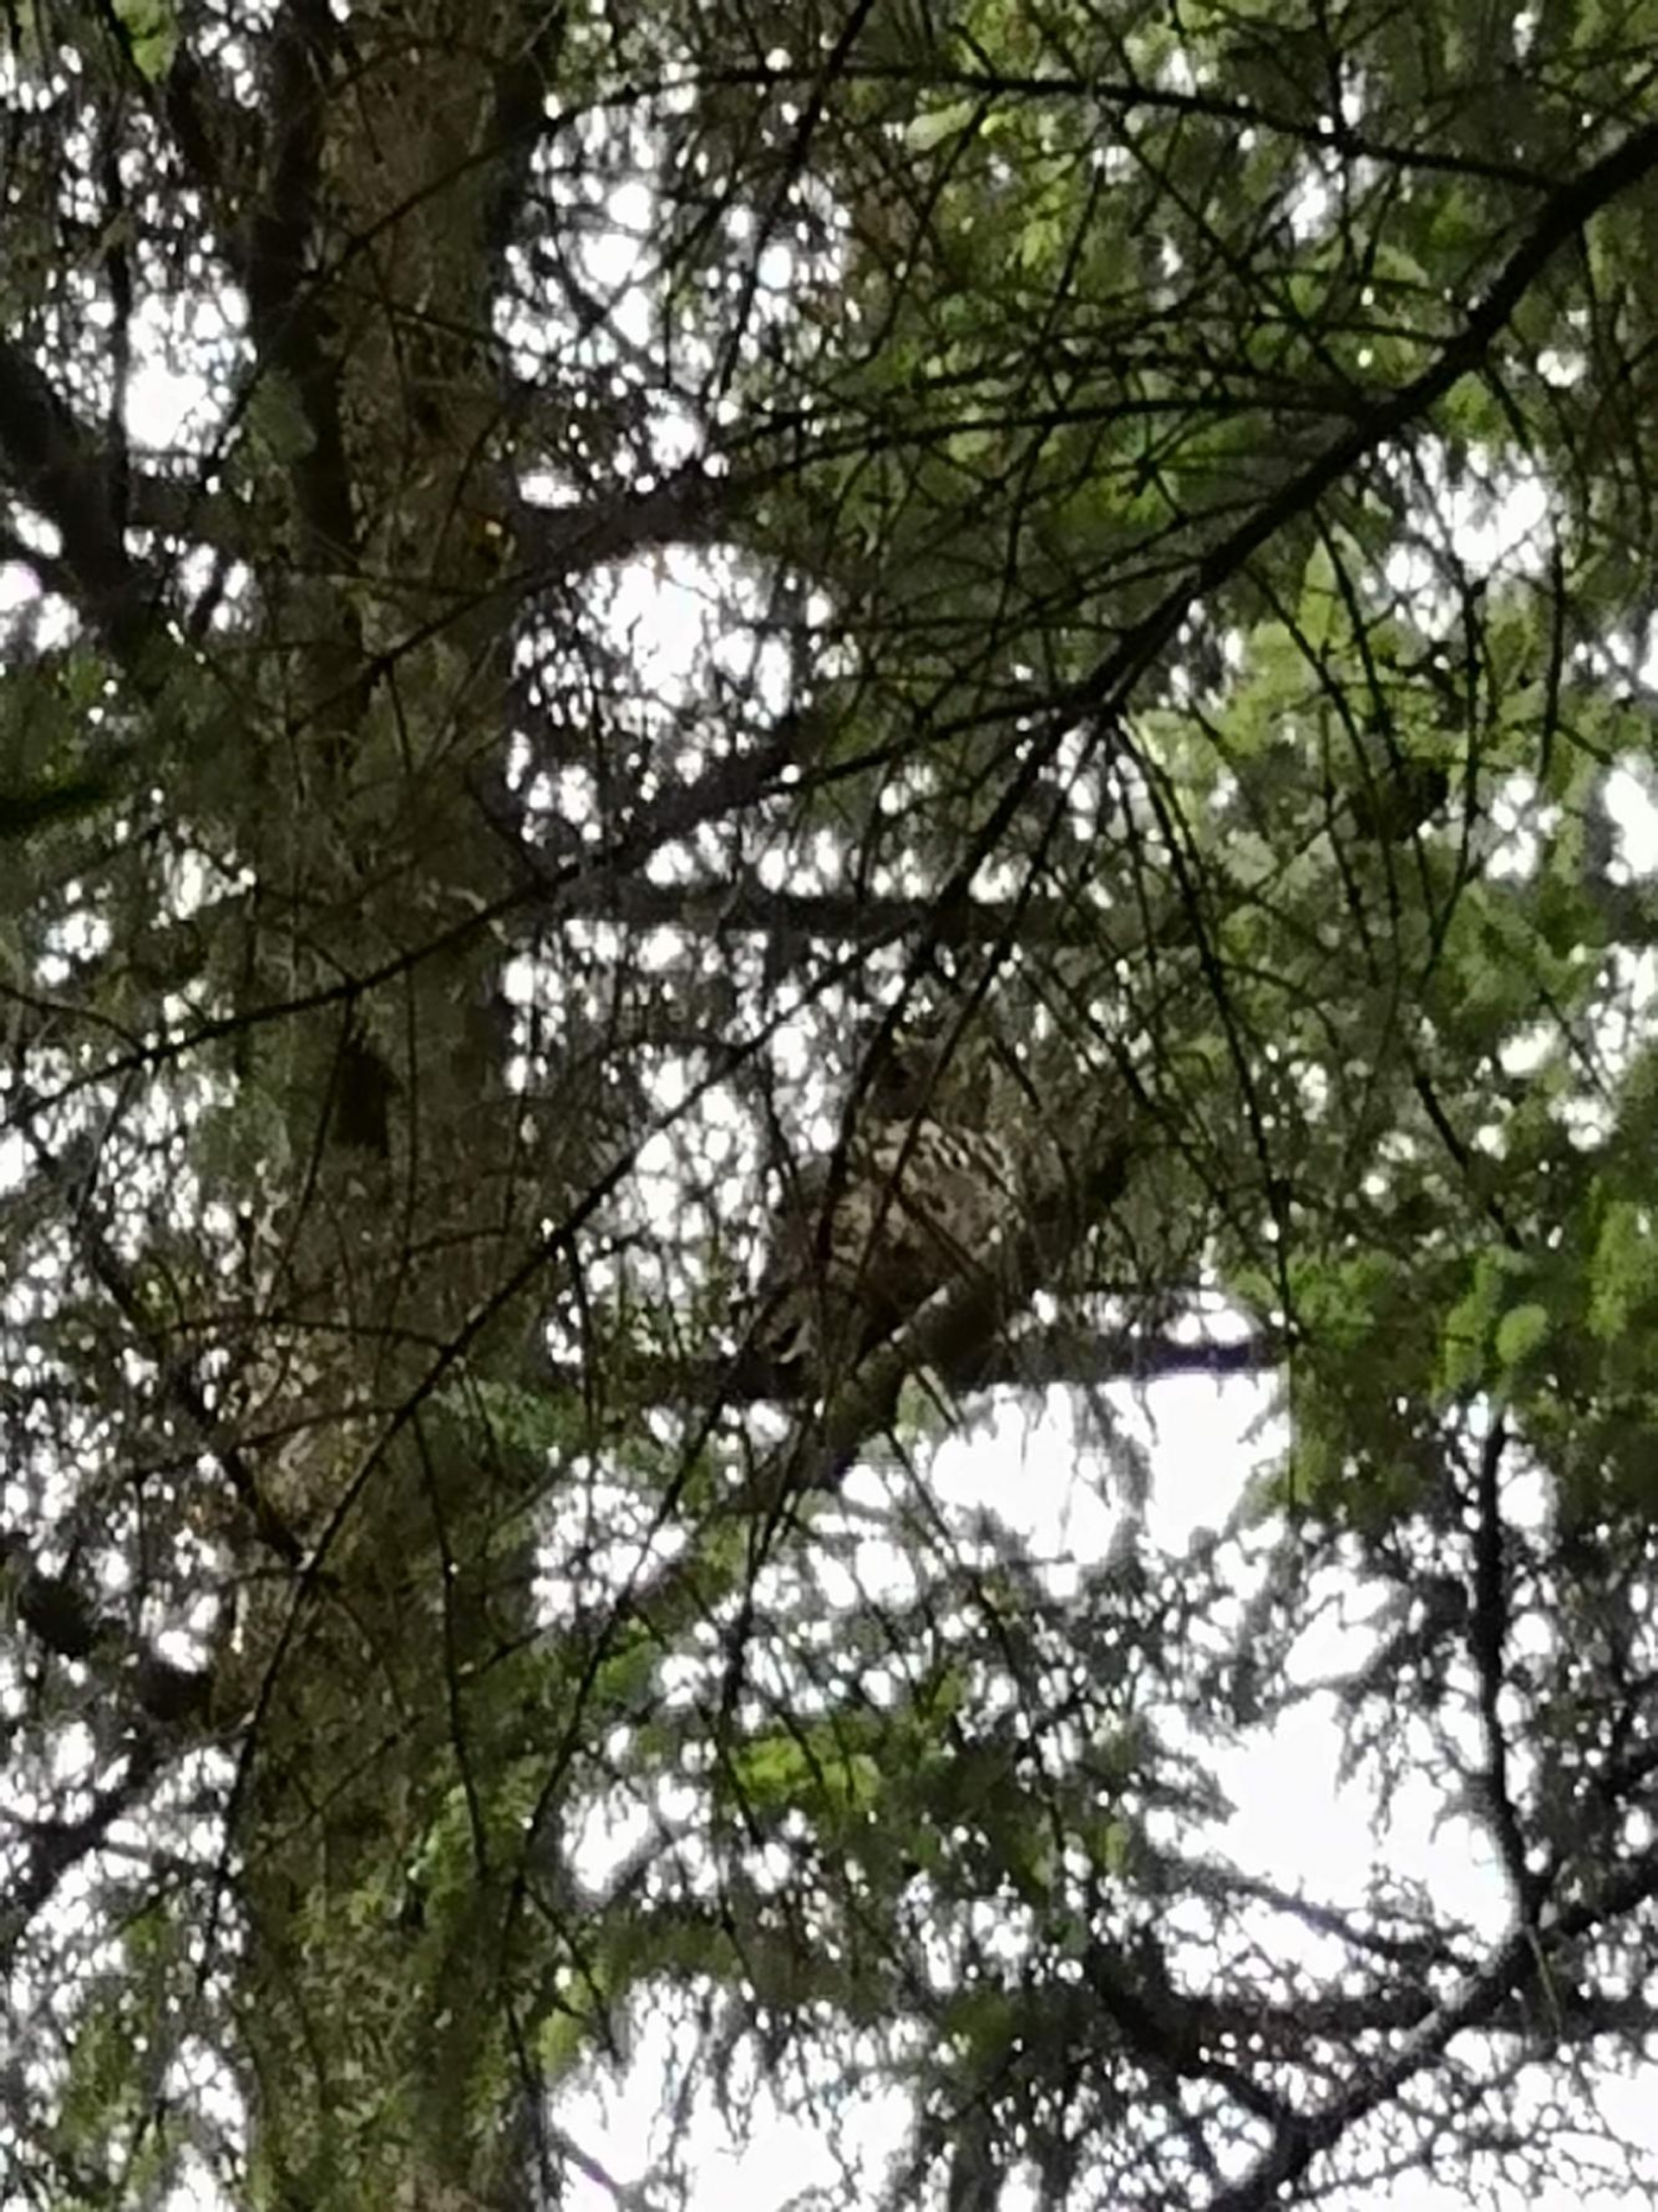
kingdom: Animalia
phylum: Chordata
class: Aves
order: Strigiformes
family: Strigidae
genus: Bubo
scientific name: Bubo bubo
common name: Stor hornugle
